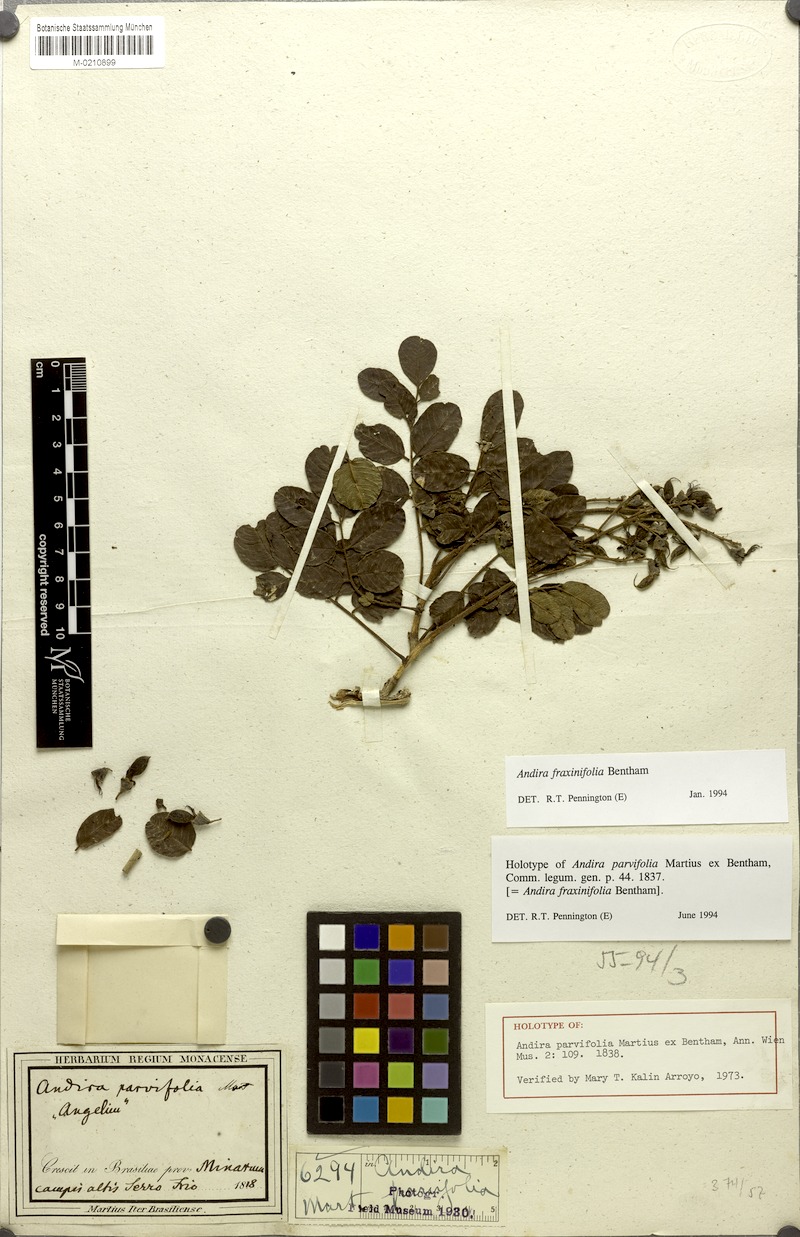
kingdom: Plantae
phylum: Tracheophyta
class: Magnoliopsida
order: Fabales
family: Fabaceae
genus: Andira
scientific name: Andira fraxinifolia
